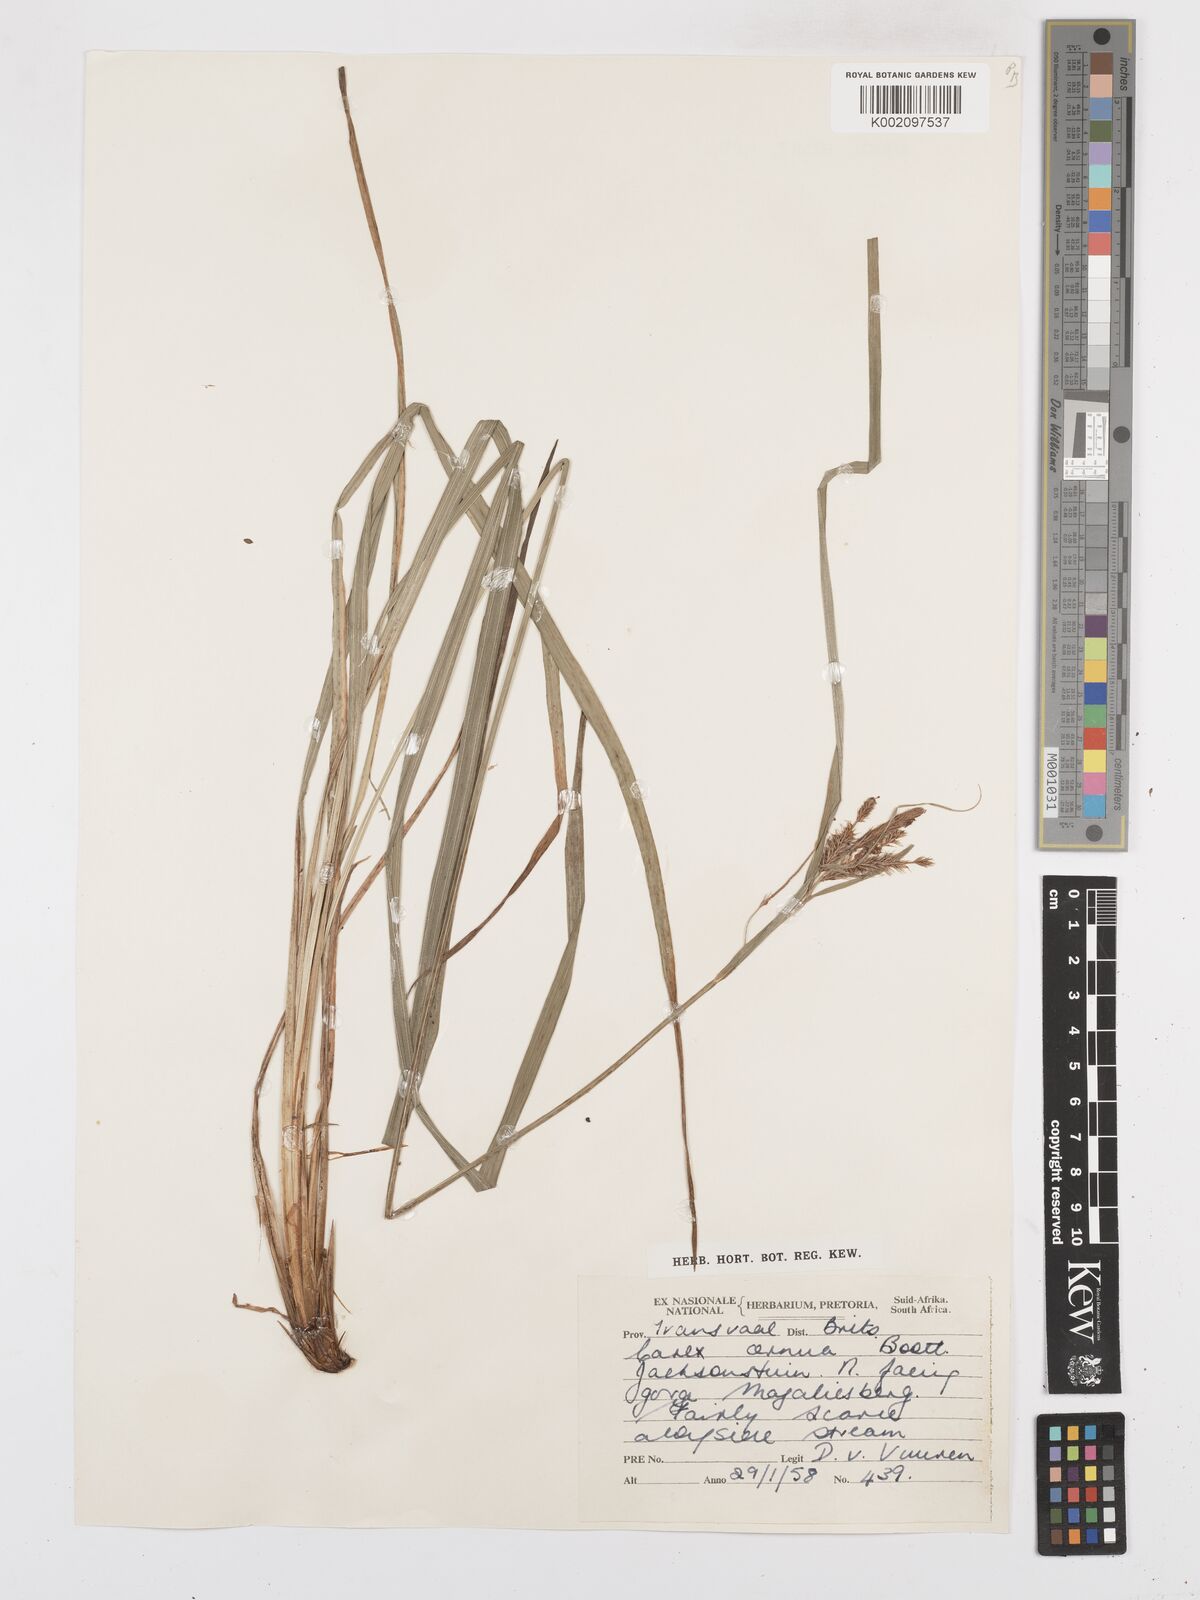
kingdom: Plantae
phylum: Tracheophyta
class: Liliopsida
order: Poales
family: Cyperaceae
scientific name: Cyperaceae
